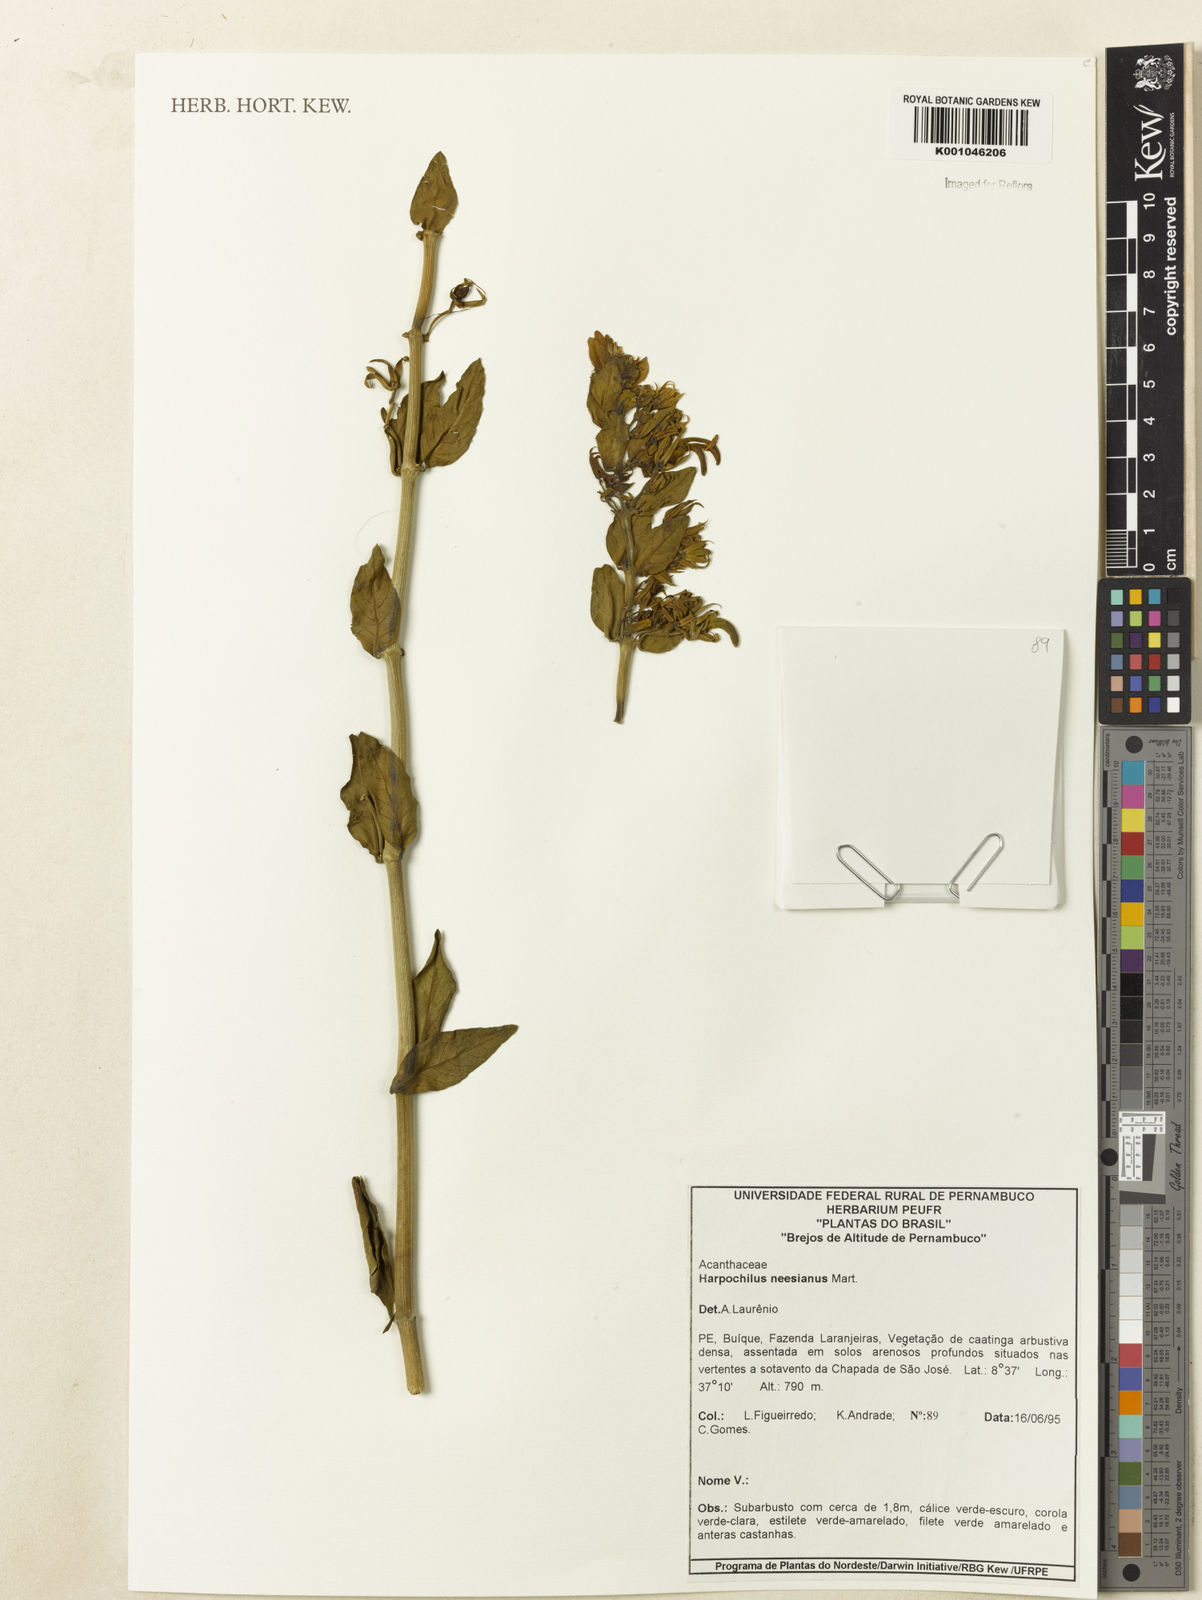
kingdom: Plantae
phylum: Tracheophyta
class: Magnoliopsida
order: Lamiales
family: Acanthaceae
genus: Harpochilus
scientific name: Harpochilus neesianus
